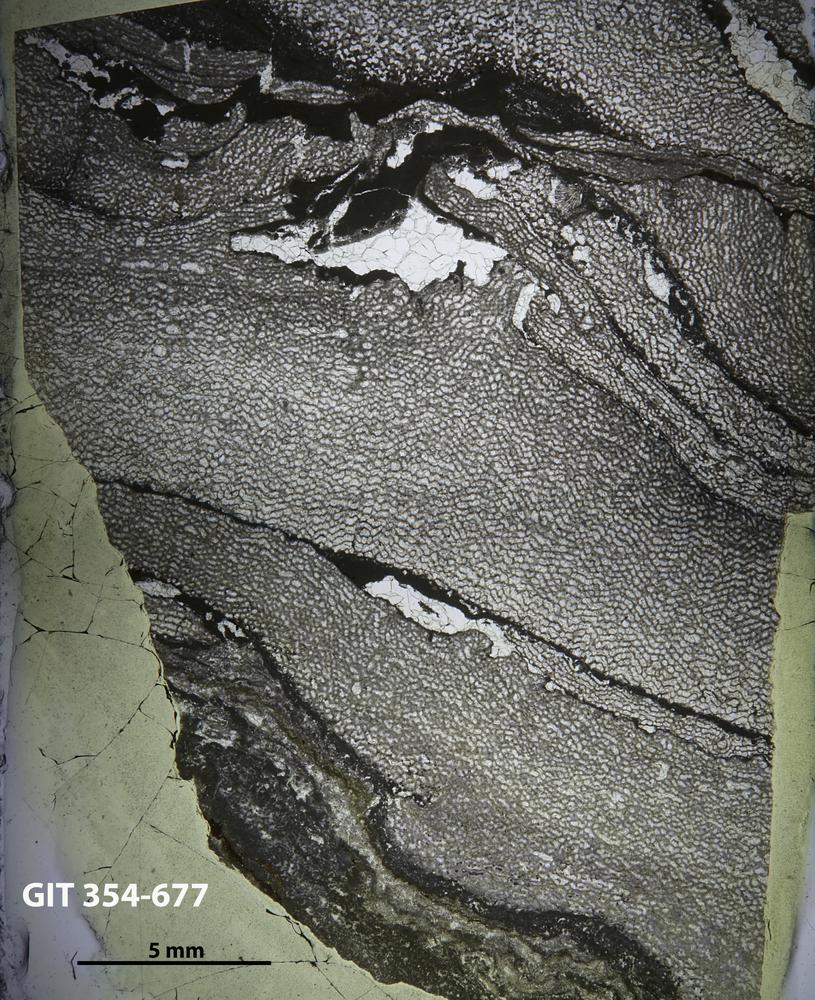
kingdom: Animalia
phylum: Porifera
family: Ecclimadictyidae
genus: Ecclimadictyon
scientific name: Ecclimadictyon
